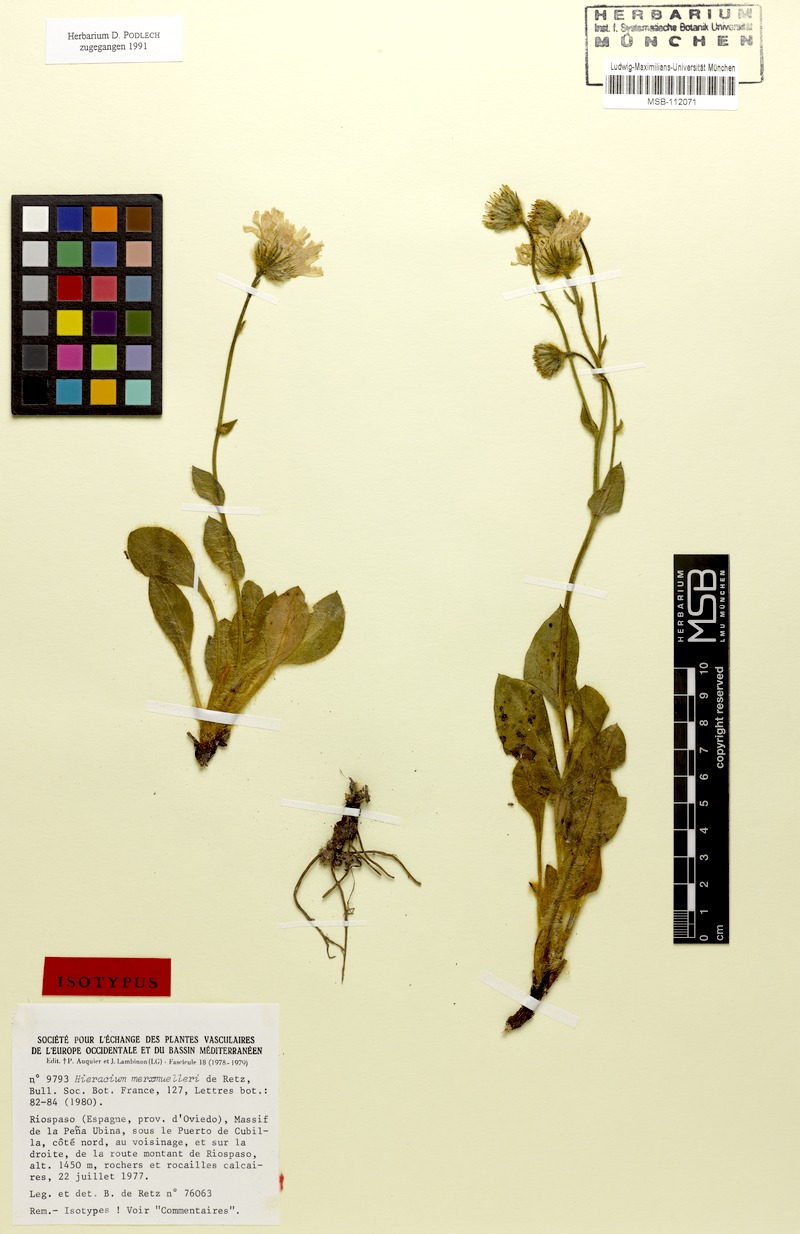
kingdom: Plantae
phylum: Tracheophyta
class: Magnoliopsida
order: Asterales
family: Asteraceae
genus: Hieracium
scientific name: Hieracium merxmuelleri
